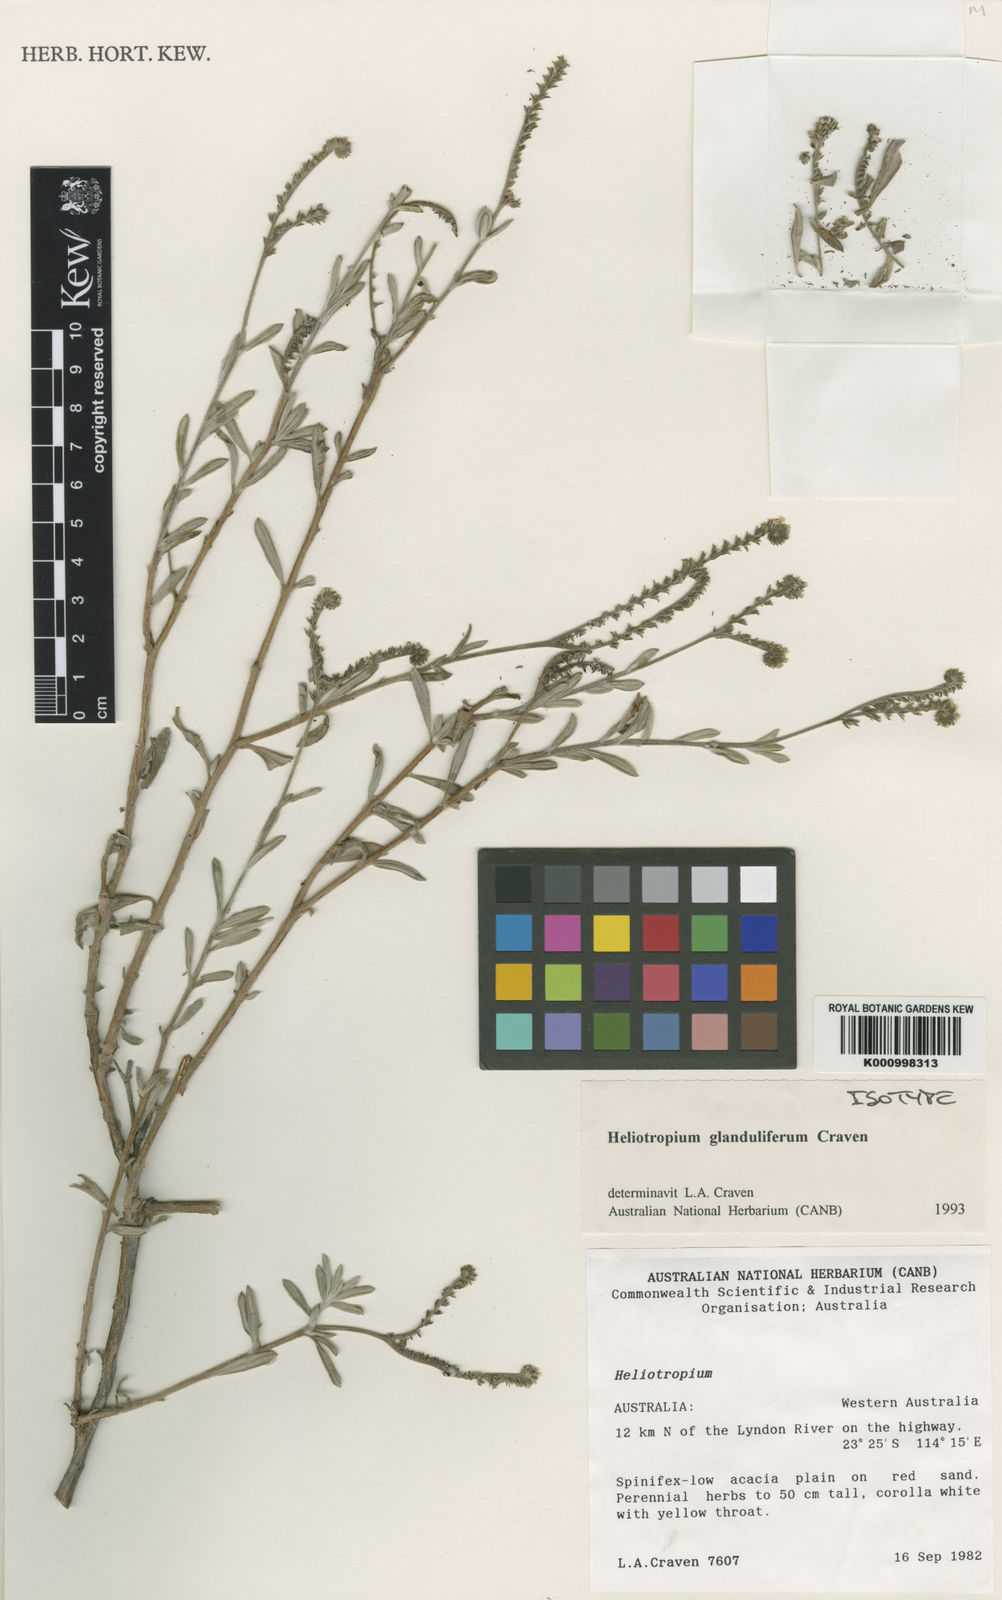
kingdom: Plantae
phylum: Tracheophyta
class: Magnoliopsida
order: Boraginales
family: Heliotropiaceae
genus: Euploca
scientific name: Euploca glandulifera
